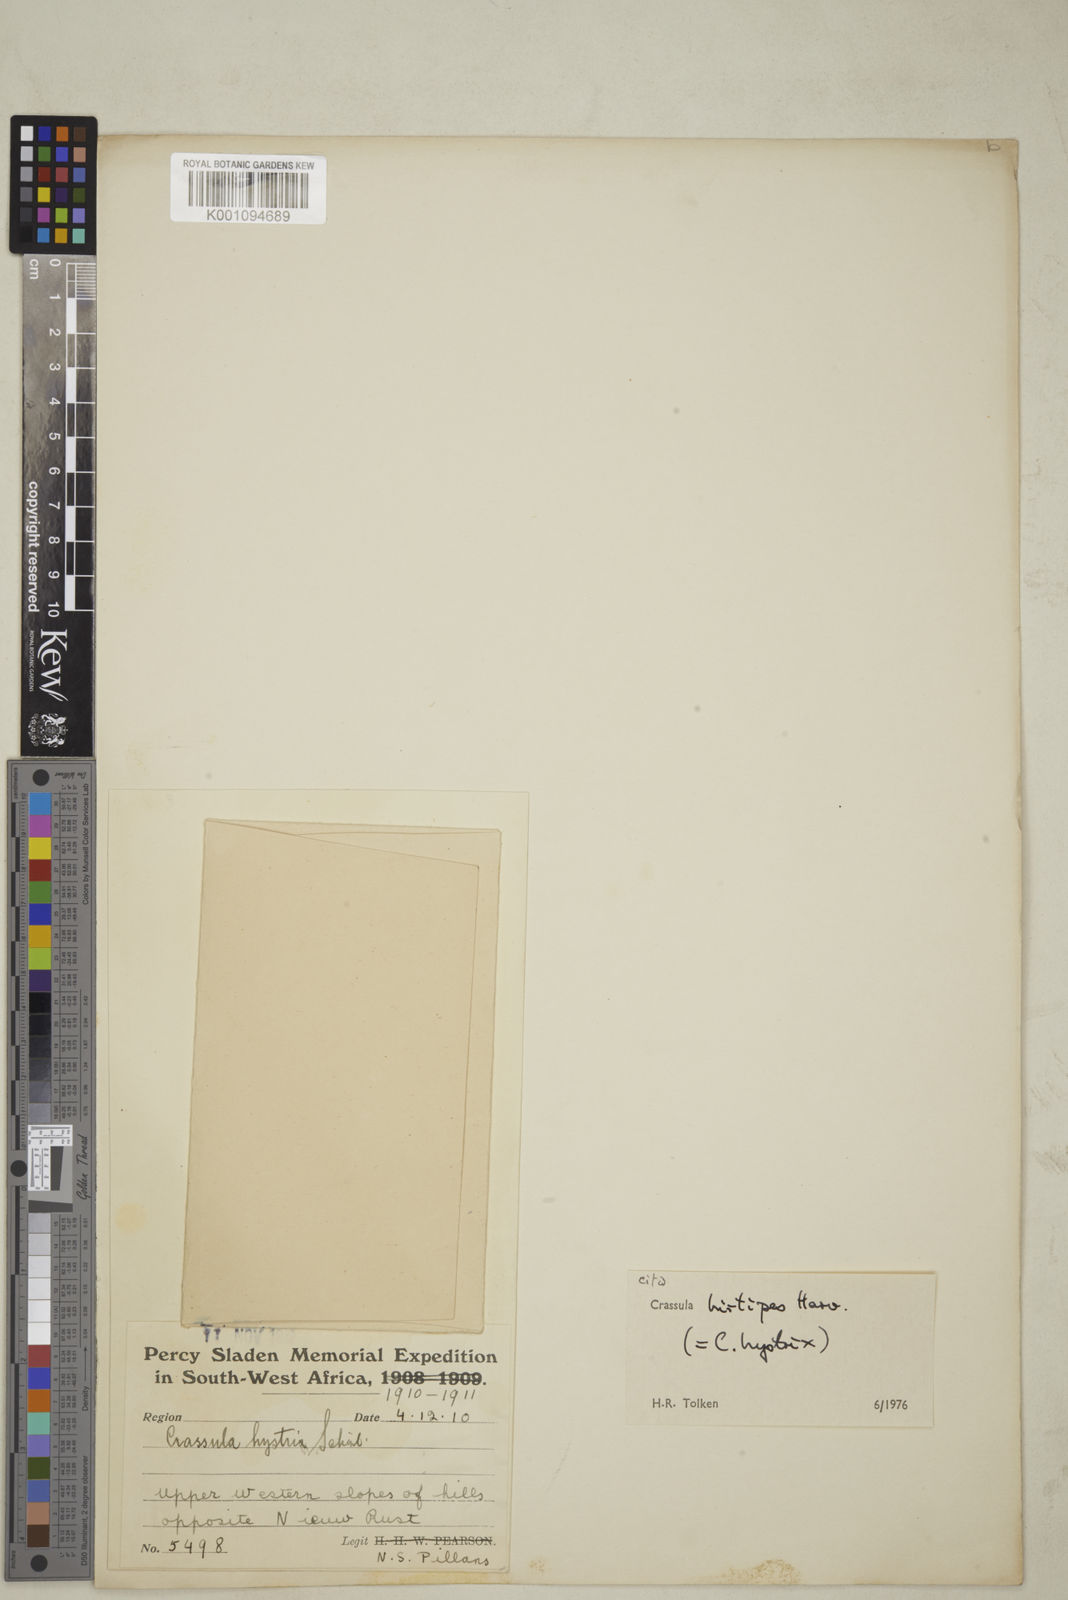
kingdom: Plantae
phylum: Tracheophyta
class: Magnoliopsida
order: Saxifragales
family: Crassulaceae
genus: Crassula
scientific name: Crassula hirtipes
